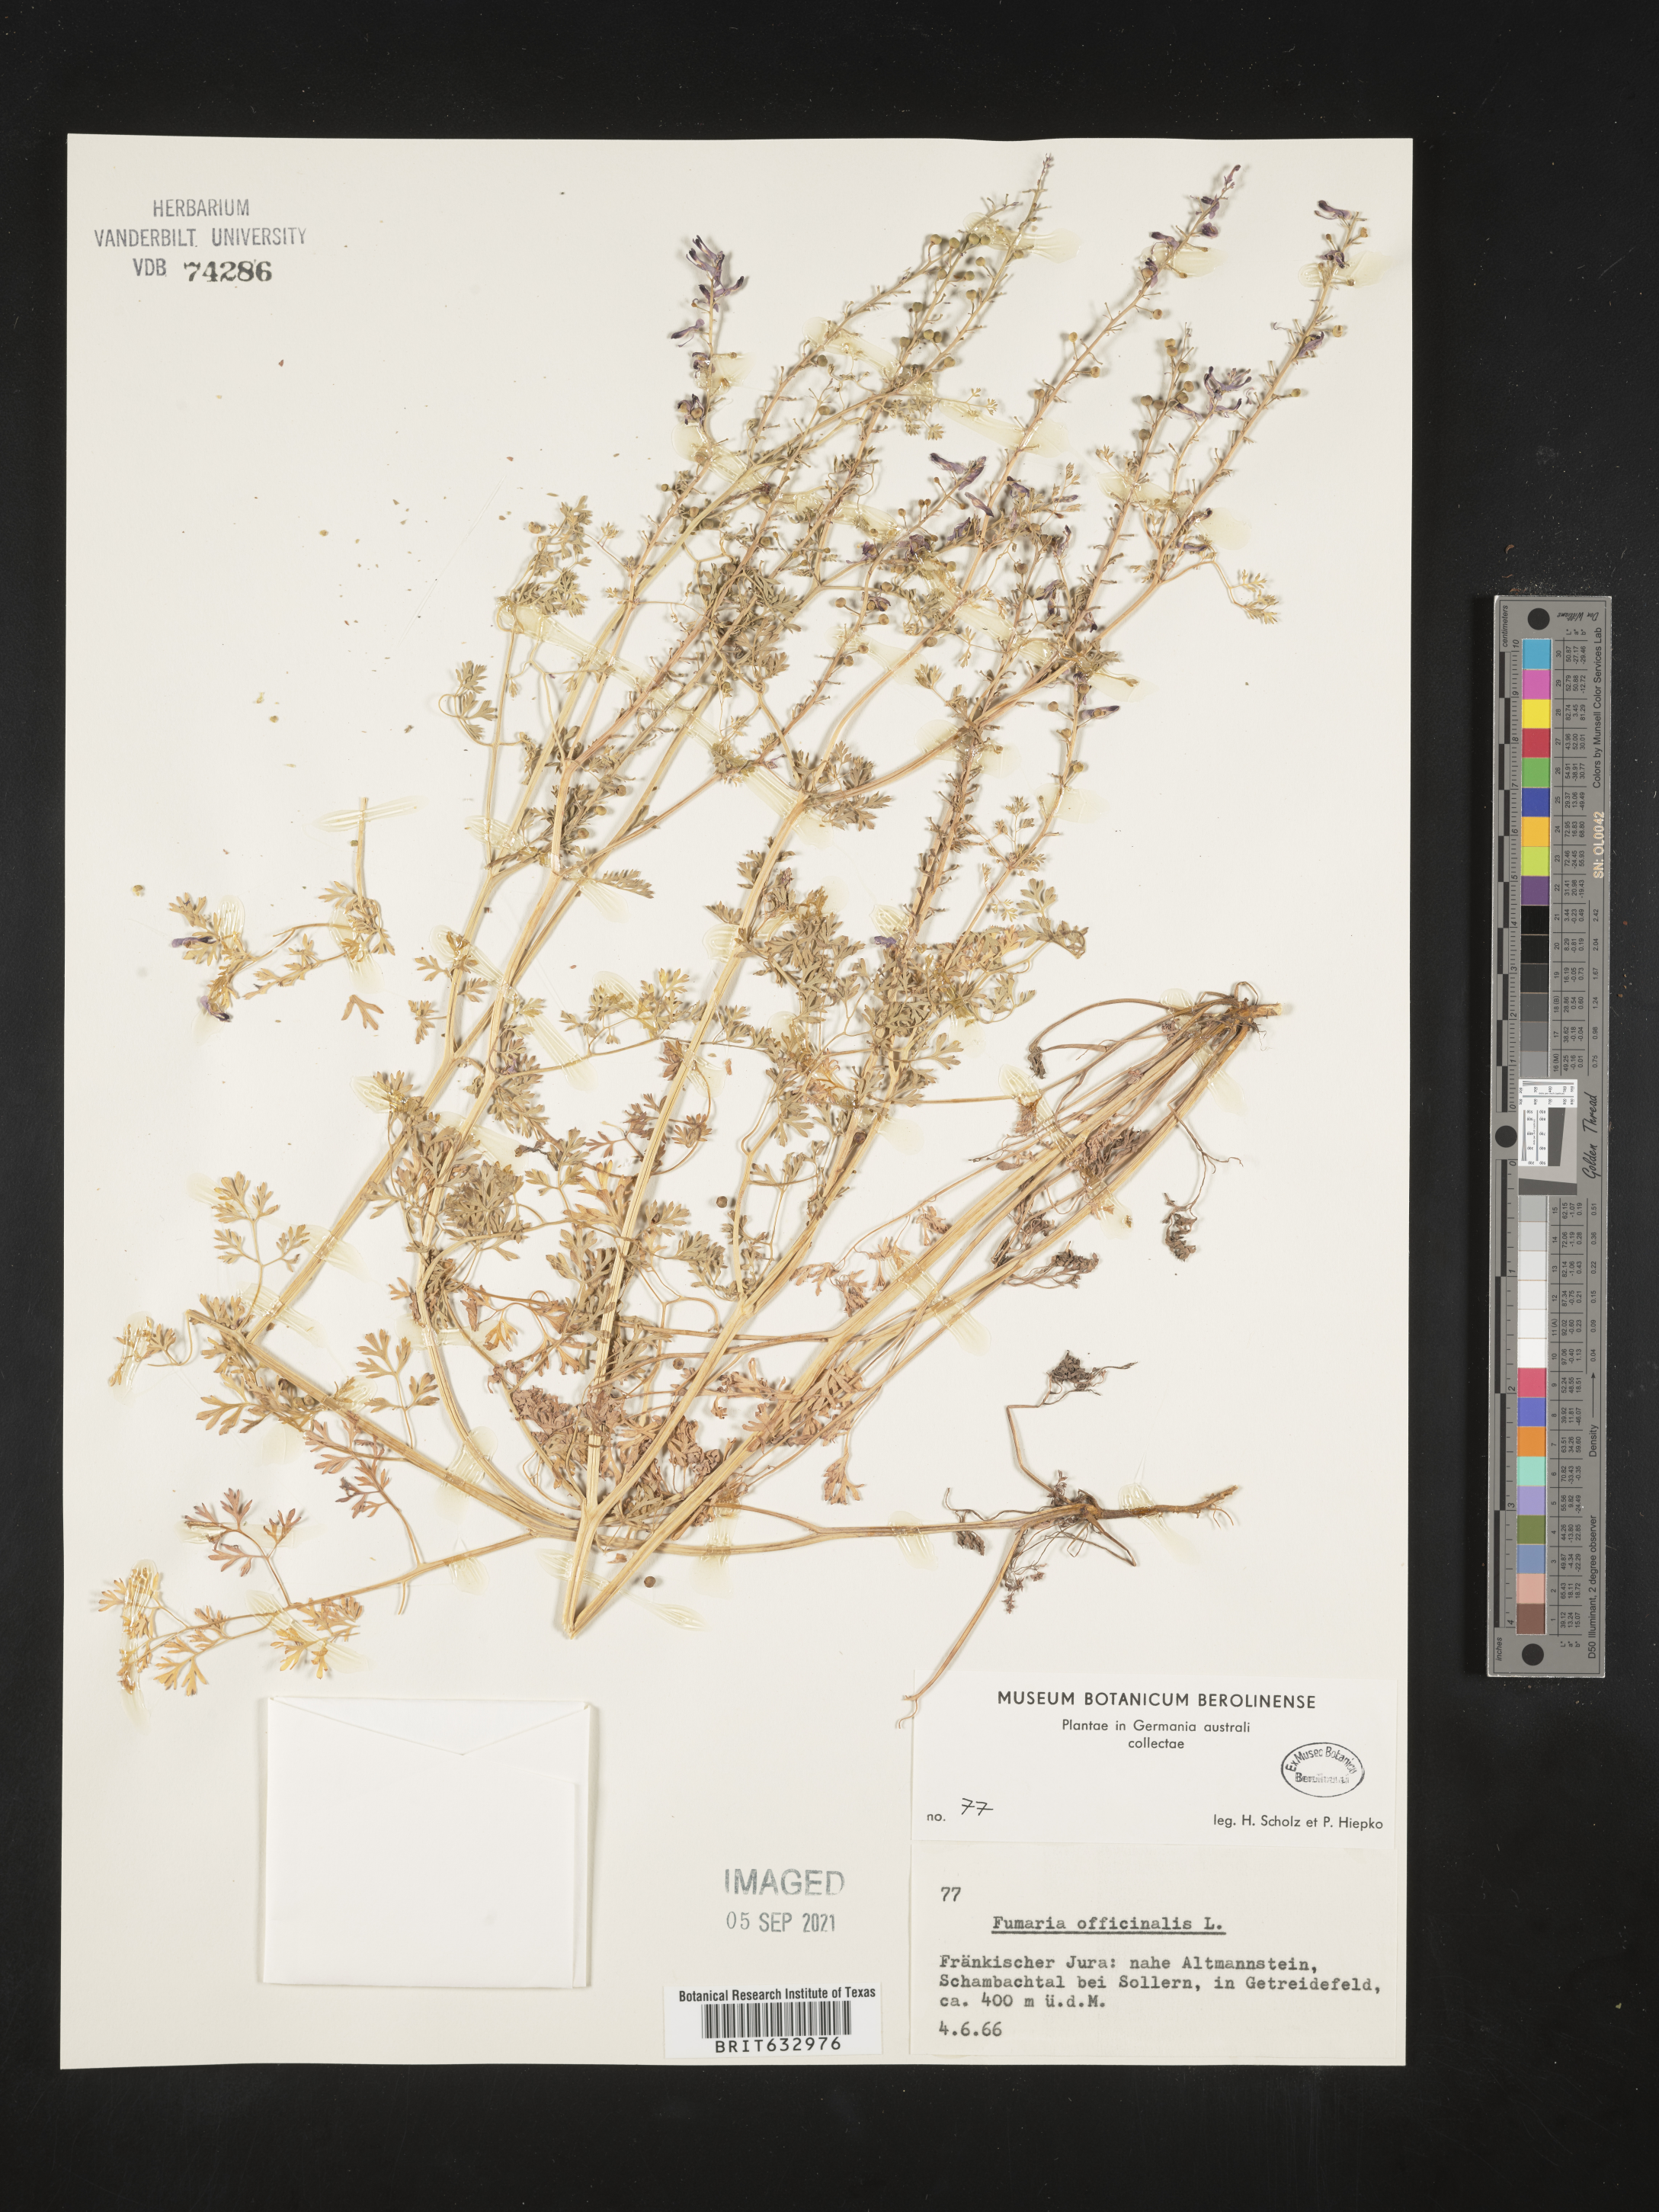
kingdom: Plantae
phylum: Tracheophyta
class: Magnoliopsida
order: Ranunculales
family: Papaveraceae
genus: Fumaria
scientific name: Fumaria
